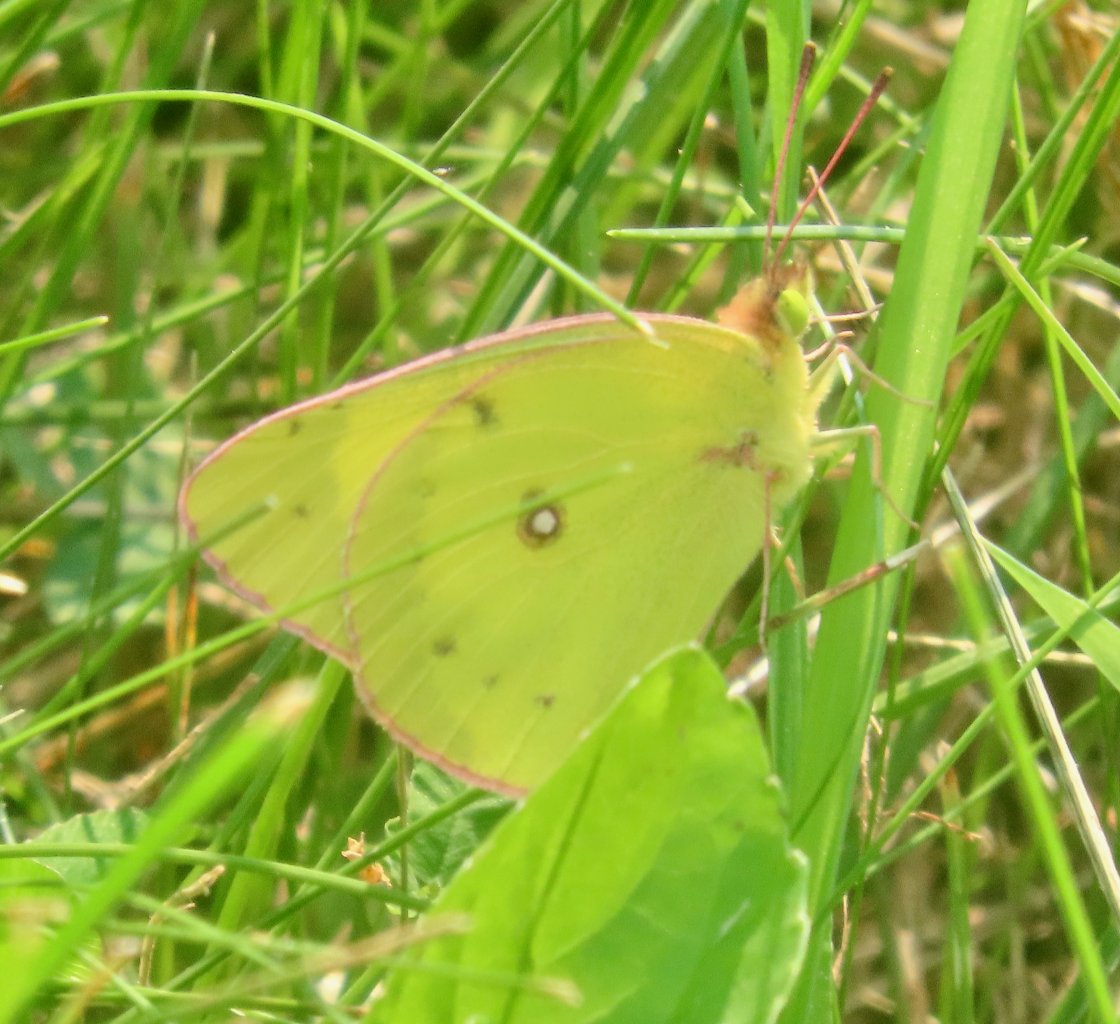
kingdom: Animalia
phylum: Arthropoda
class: Insecta
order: Lepidoptera
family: Pieridae
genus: Colias
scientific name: Colias philodice
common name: Clouded Sulphur
